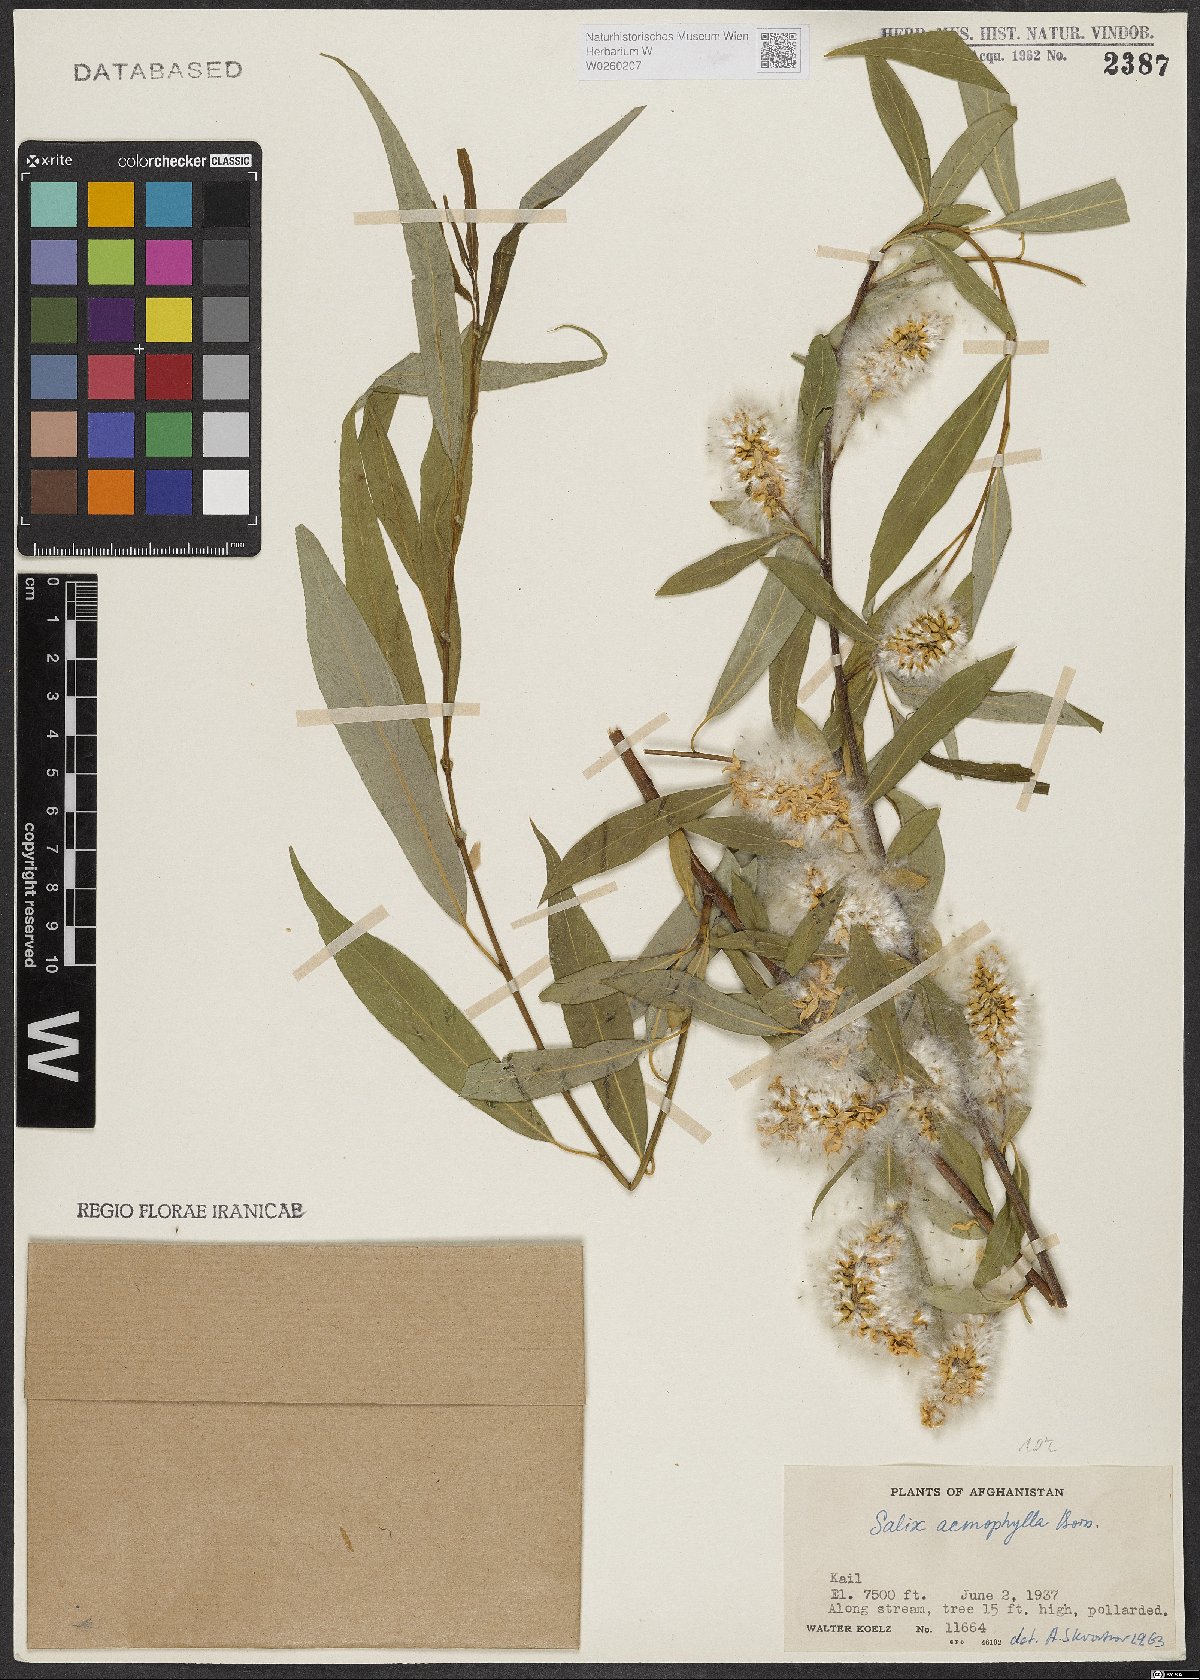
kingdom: Plantae
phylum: Tracheophyta
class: Magnoliopsida
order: Malpighiales
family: Salicaceae
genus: Salix
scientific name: Salix acmophylla
